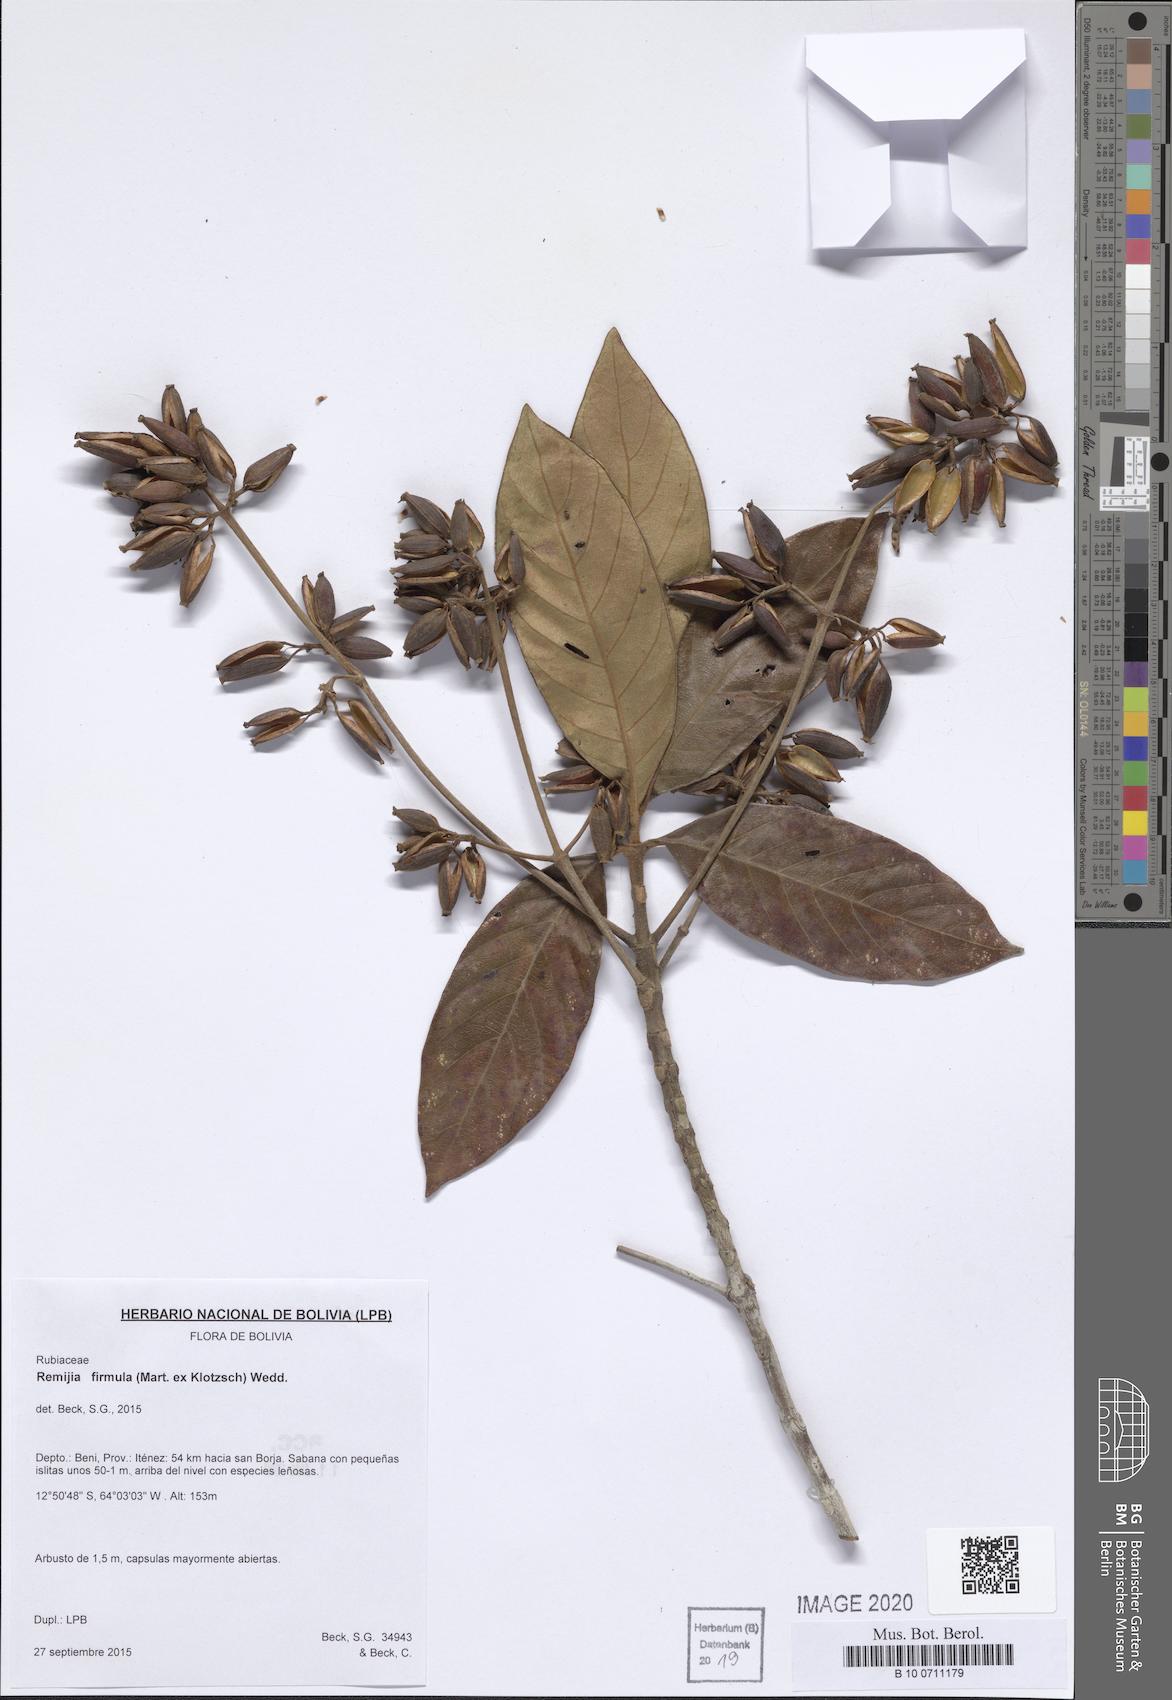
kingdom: Plantae
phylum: Tracheophyta
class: Magnoliopsida
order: Gentianales
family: Rubiaceae
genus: Remijia
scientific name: Remijia firmula
